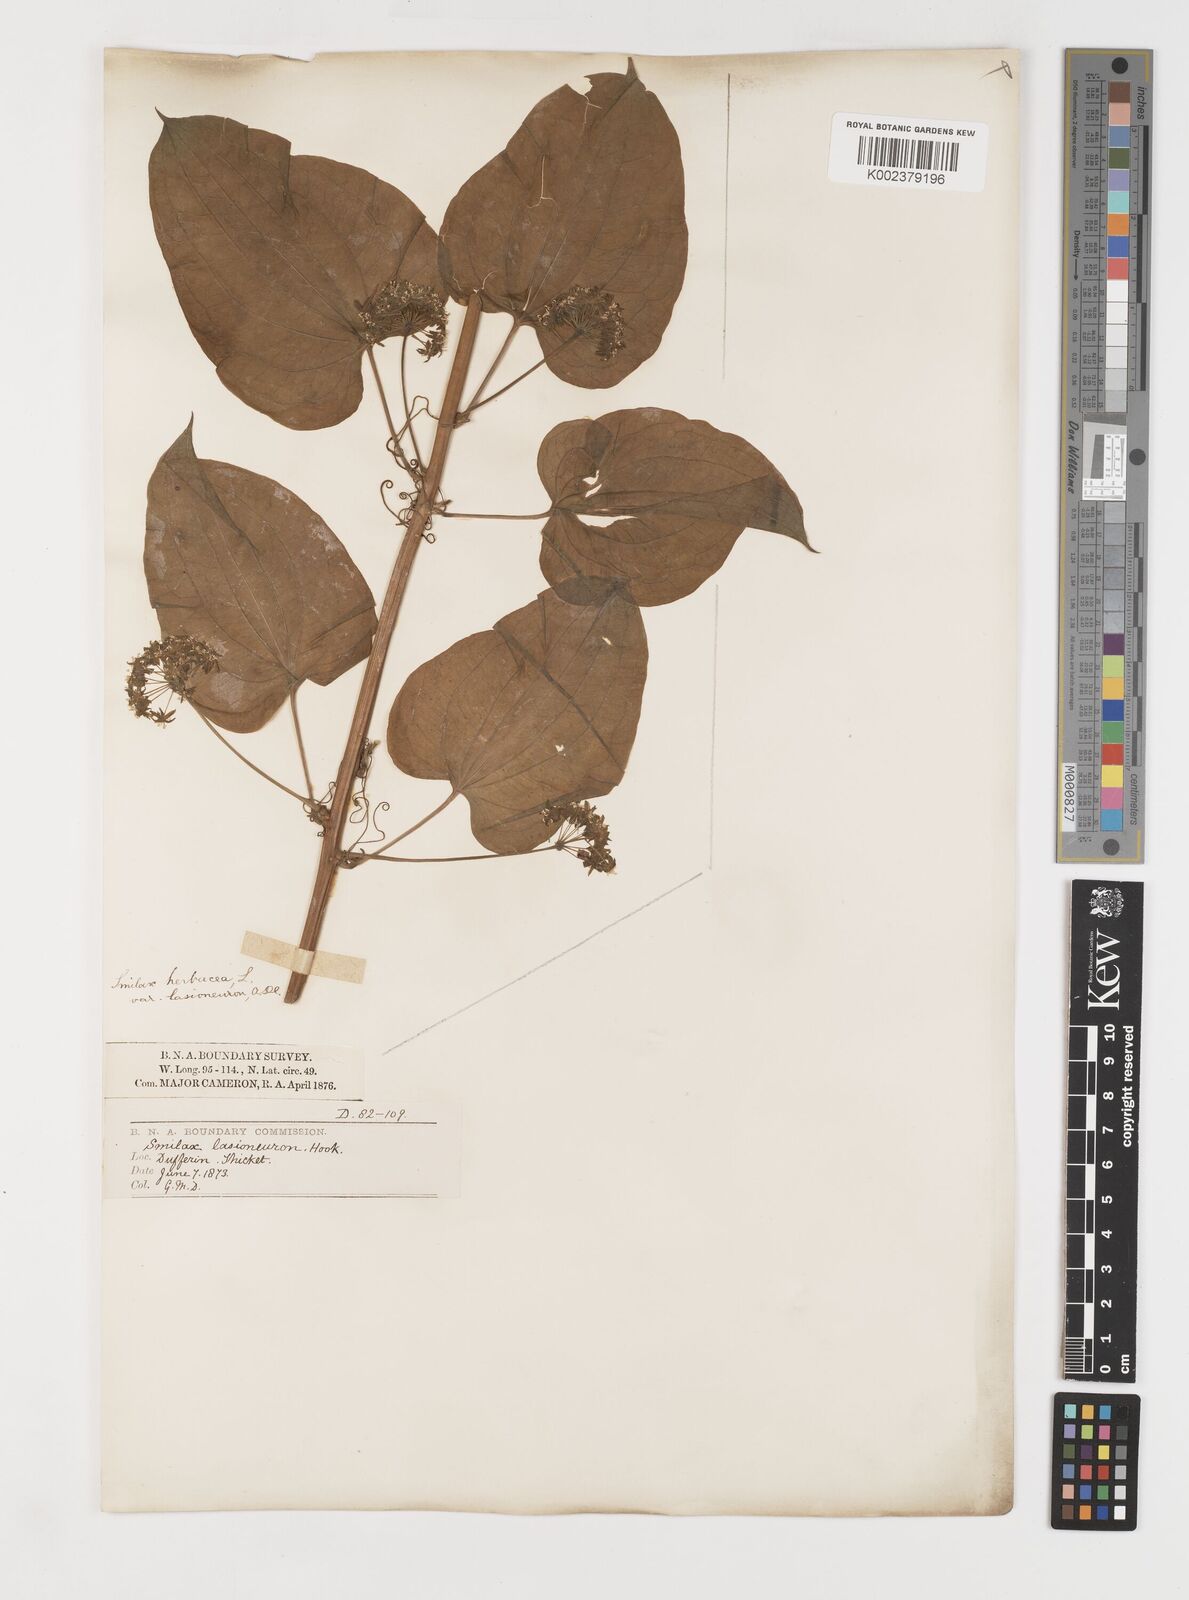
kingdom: Plantae
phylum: Tracheophyta
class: Liliopsida
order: Liliales
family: Smilacaceae
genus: Smilax
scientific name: Smilax lasioneura
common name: Blue ridge carrionflower
